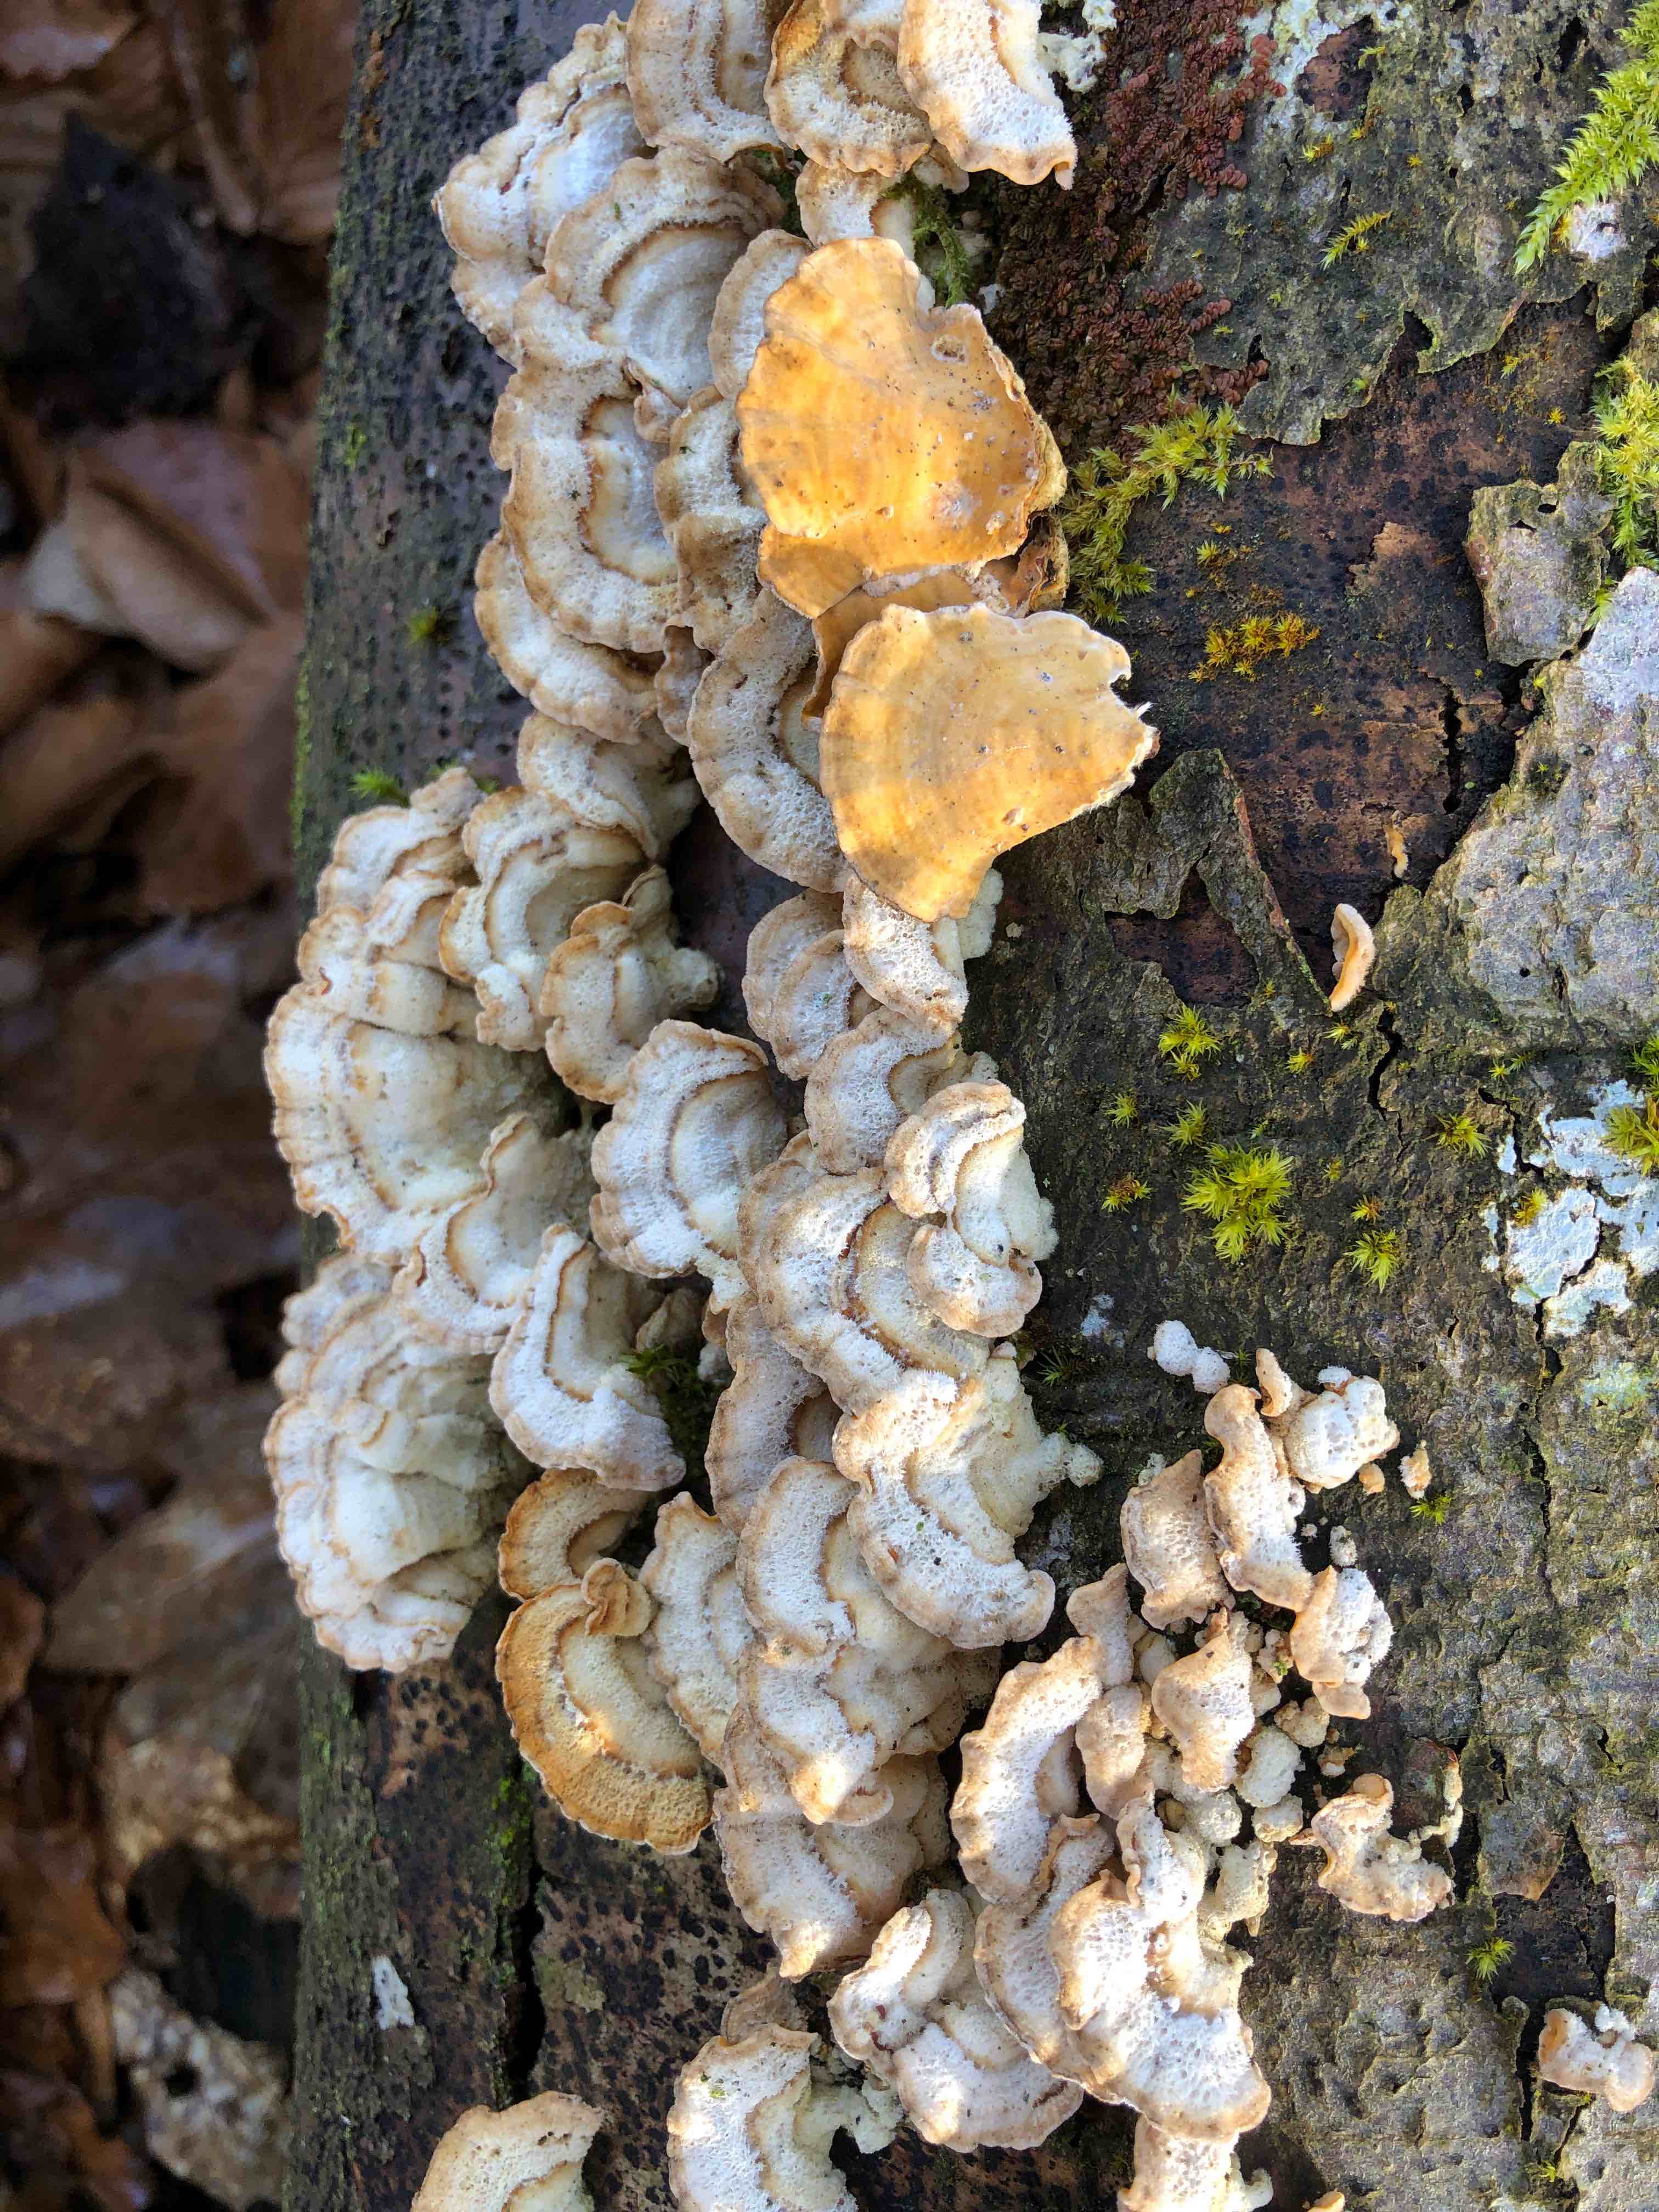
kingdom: Fungi
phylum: Basidiomycota
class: Agaricomycetes
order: Russulales
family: Stereaceae
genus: Stereum
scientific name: Stereum hirsutum
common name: håret lædersvamp
